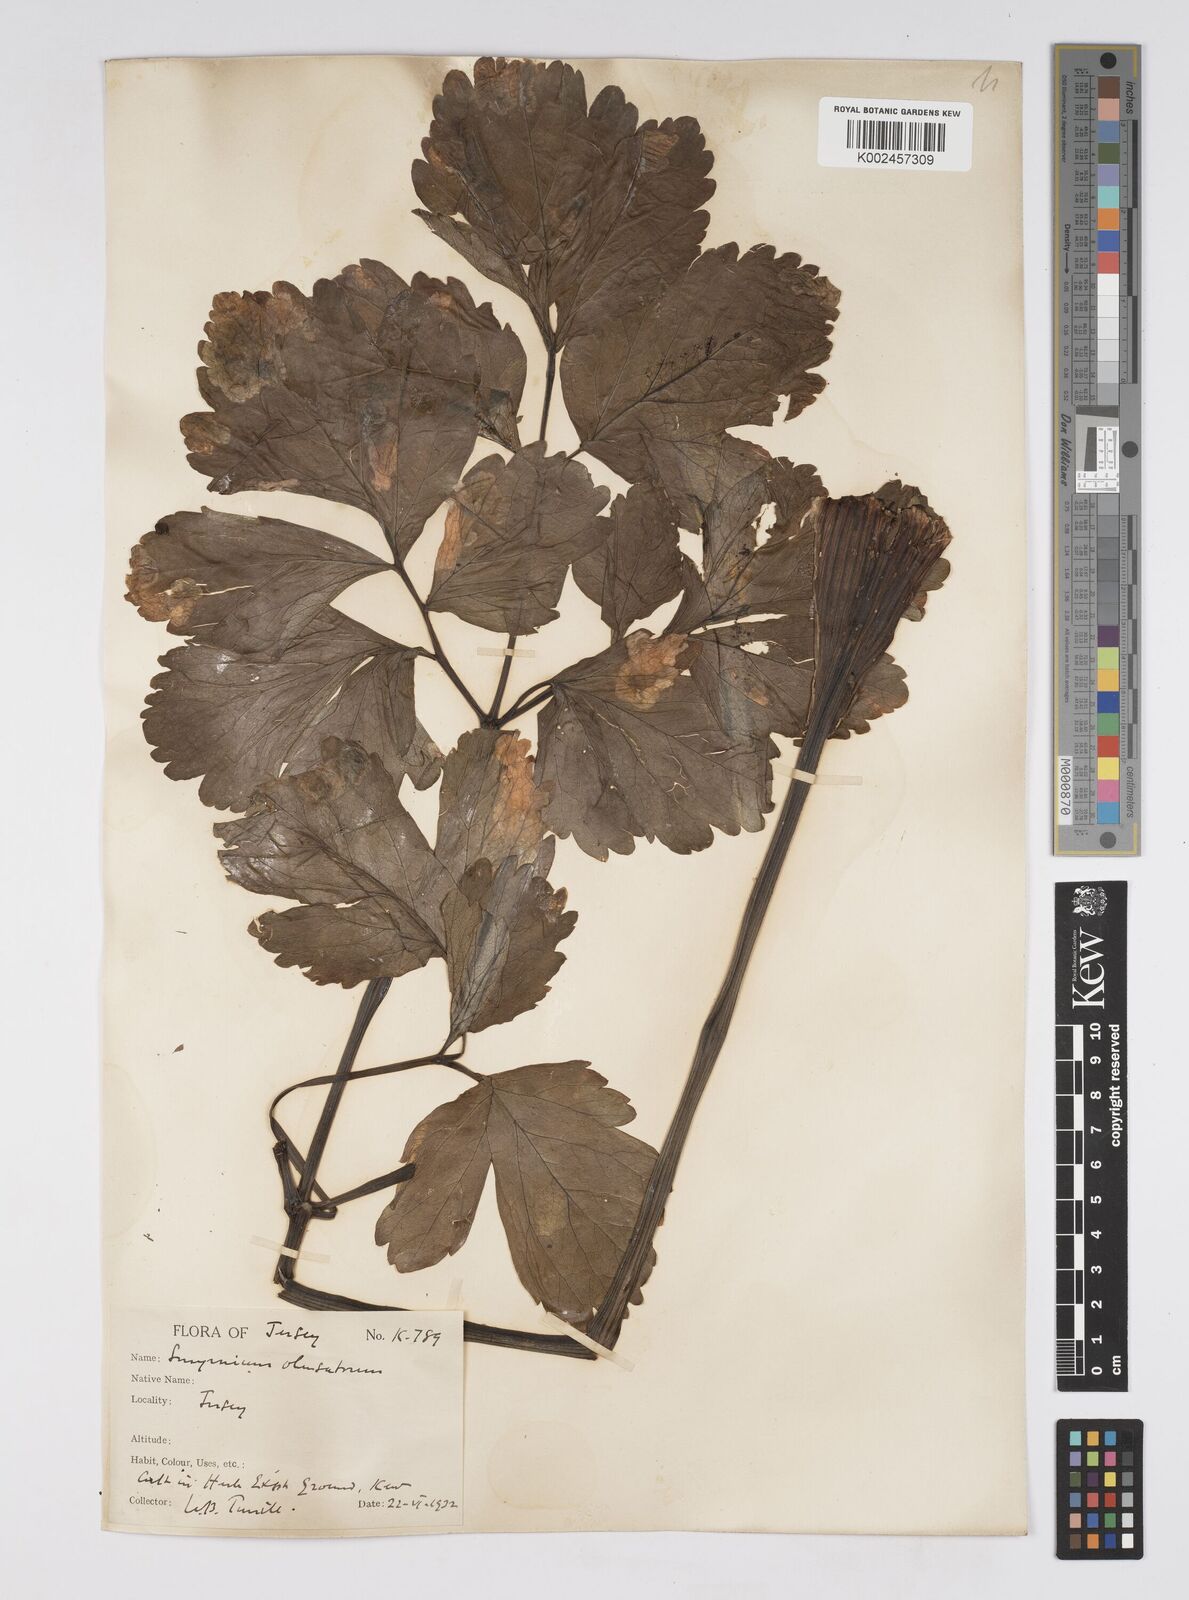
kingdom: Plantae
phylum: Tracheophyta
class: Magnoliopsida
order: Apiales
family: Apiaceae
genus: Smyrnium
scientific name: Smyrnium olusatrum
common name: Alexanders
